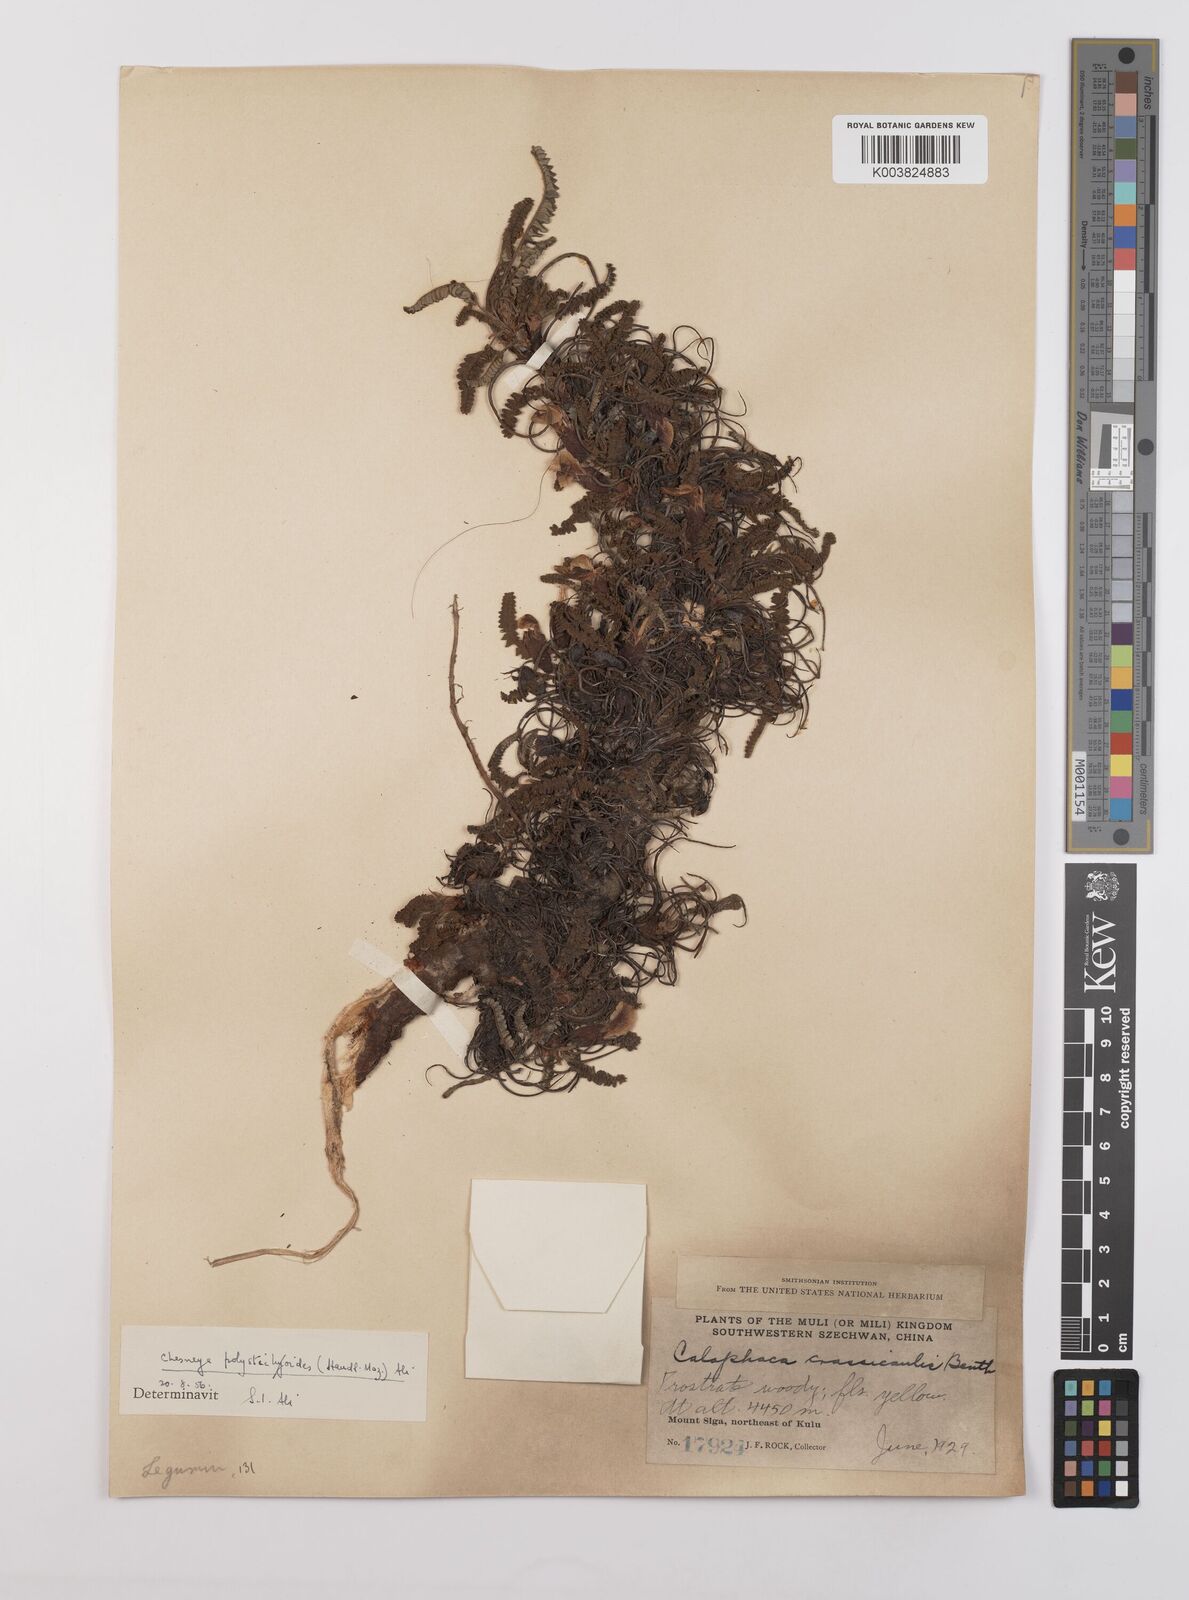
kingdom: Plantae
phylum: Tracheophyta
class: Magnoliopsida
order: Fabales
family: Fabaceae
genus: Chesneya
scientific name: Chesneya polystichoides
